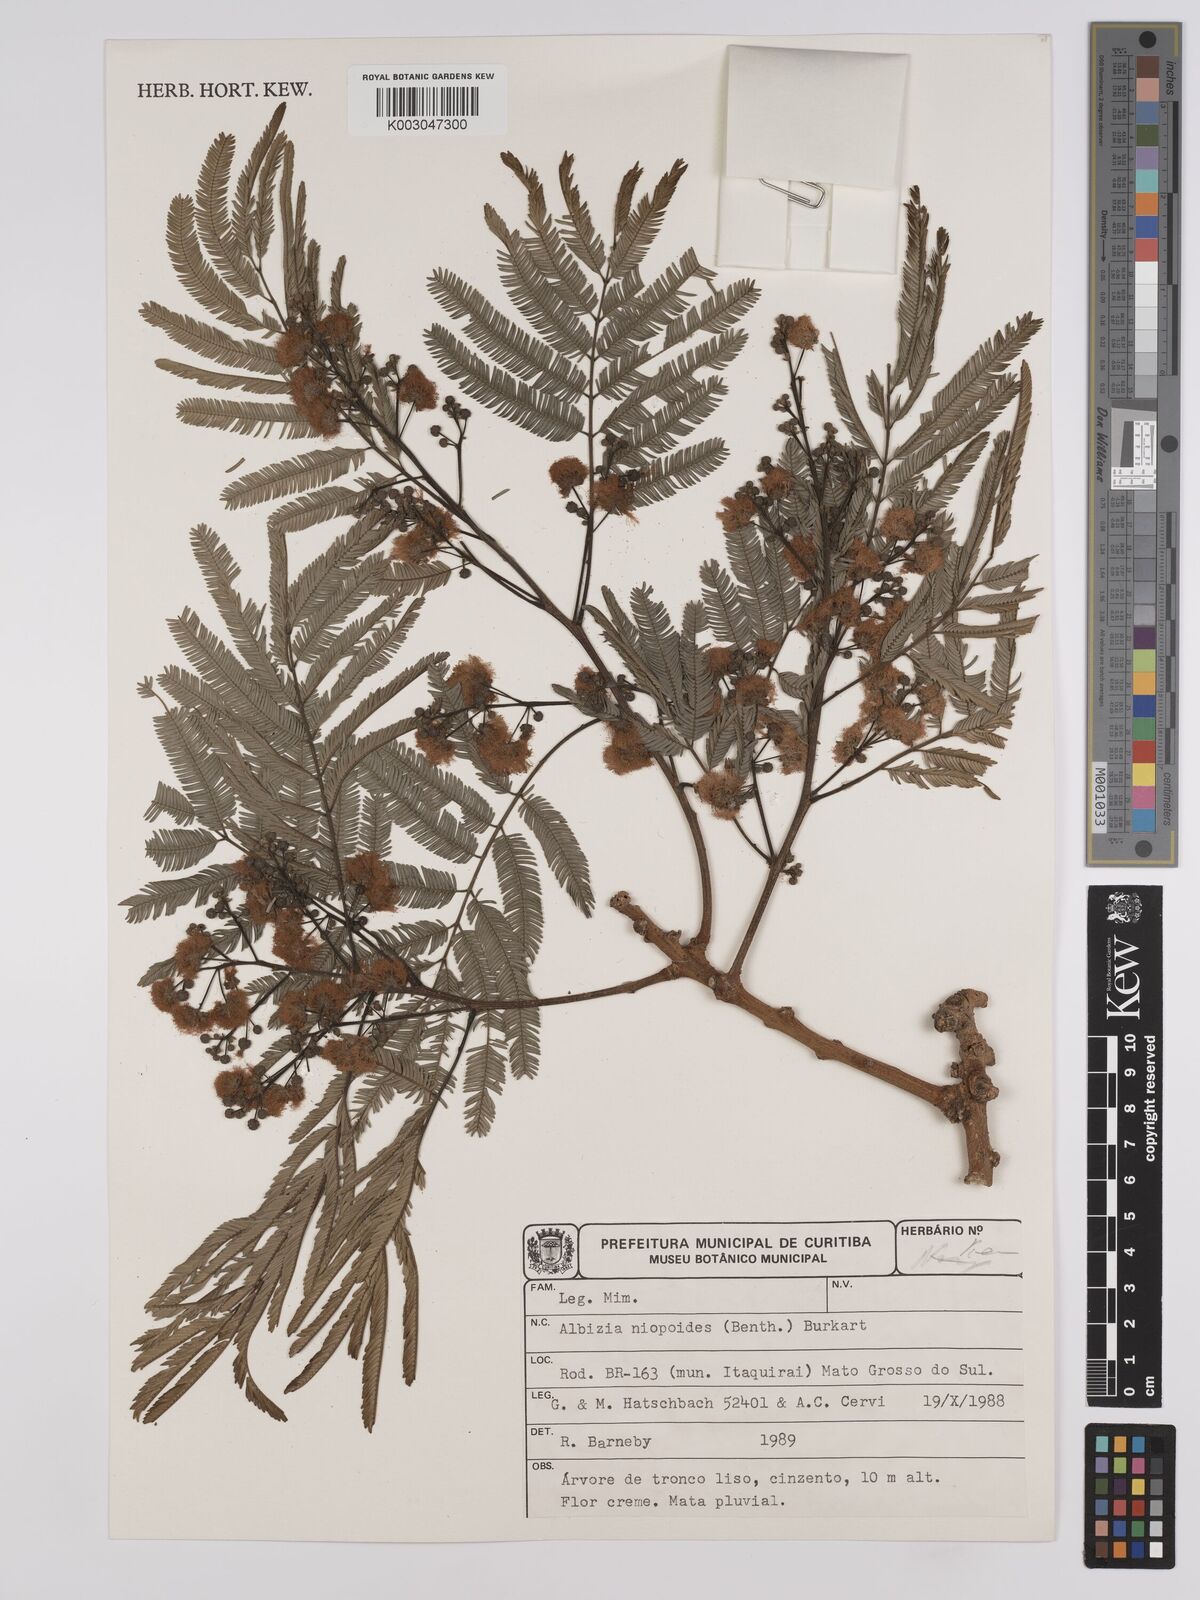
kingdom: Plantae
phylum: Tracheophyta
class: Magnoliopsida
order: Fabales
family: Fabaceae
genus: Albizia
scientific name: Albizia niopoides
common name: Silk tree
